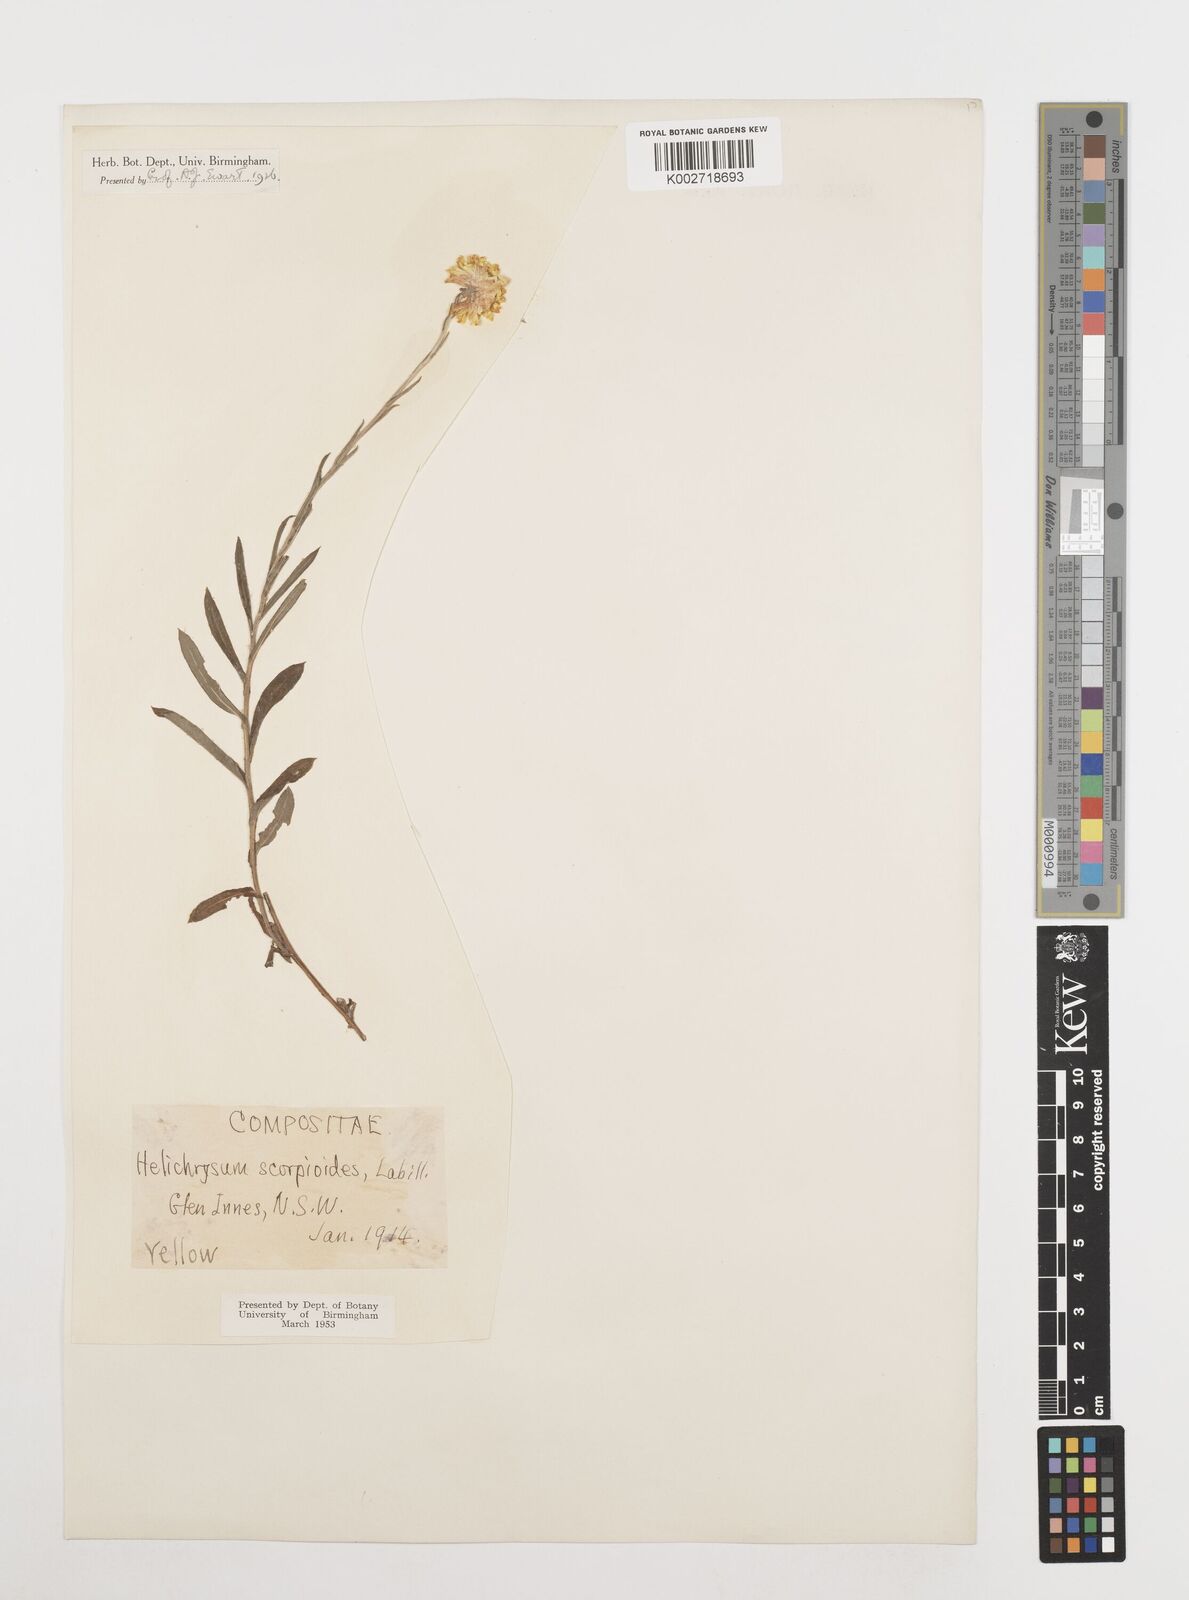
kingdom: Plantae
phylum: Tracheophyta
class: Magnoliopsida
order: Asterales
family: Asteraceae
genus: Coronidium
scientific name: Coronidium scorpioides
